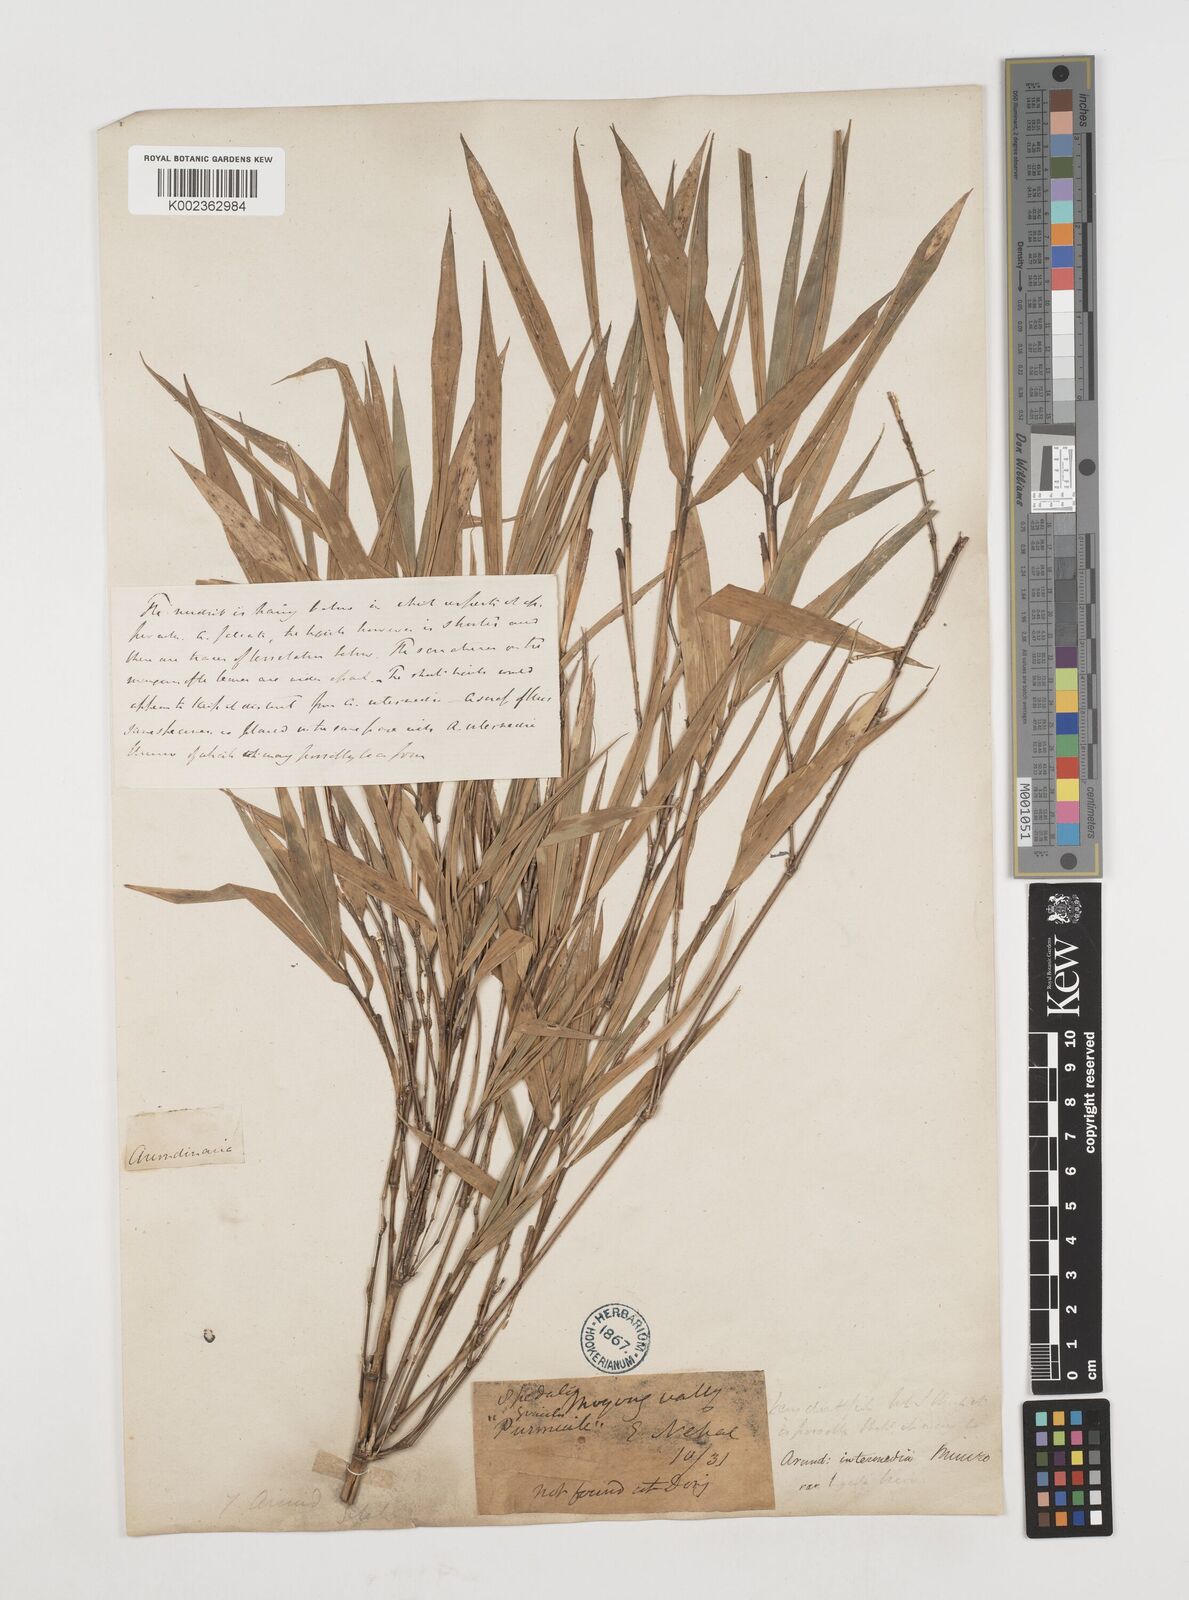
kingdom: Plantae
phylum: Tracheophyta
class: Liliopsida
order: Poales
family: Poaceae
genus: Drepanostachyum
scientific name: Drepanostachyum intermedium
